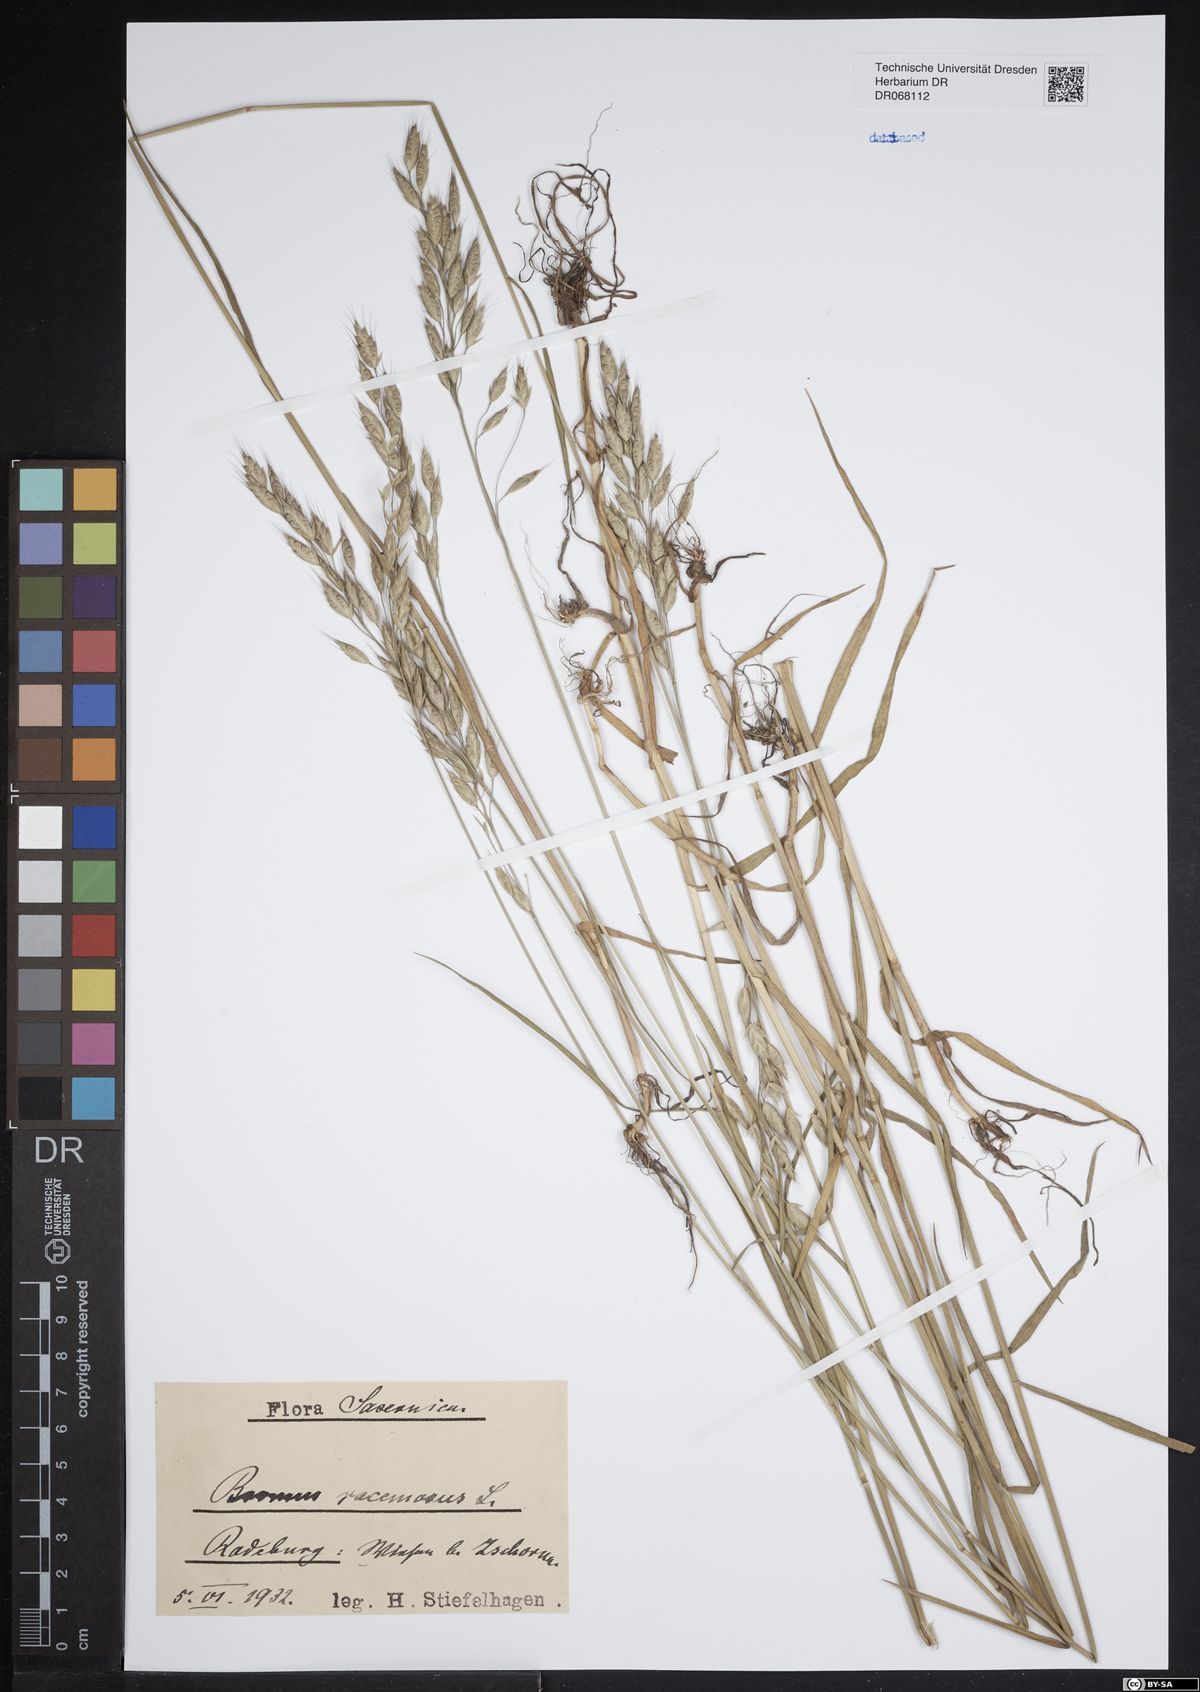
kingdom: Plantae
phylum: Tracheophyta
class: Liliopsida
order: Poales
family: Poaceae
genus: Bromus
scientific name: Bromus racemosus
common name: Bald brome
